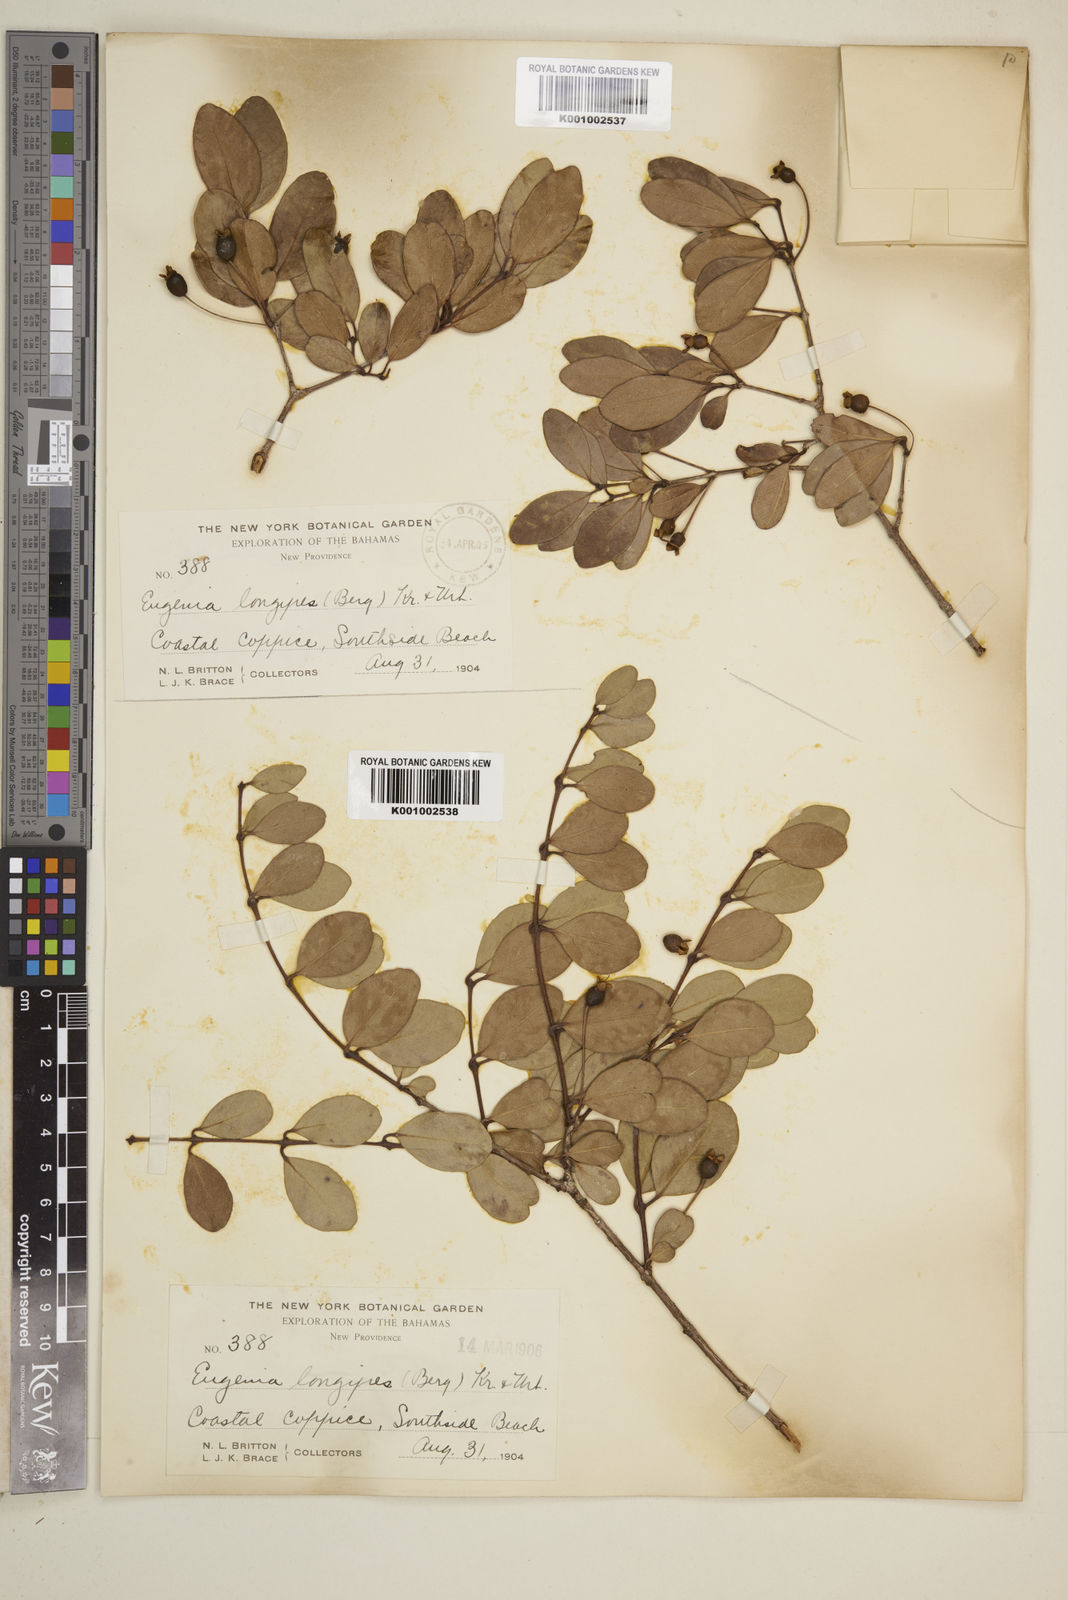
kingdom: Plantae
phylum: Tracheophyta
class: Magnoliopsida
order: Myrtales
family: Myrtaceae
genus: Mosiera
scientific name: Mosiera longipes
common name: Bahama stopper
